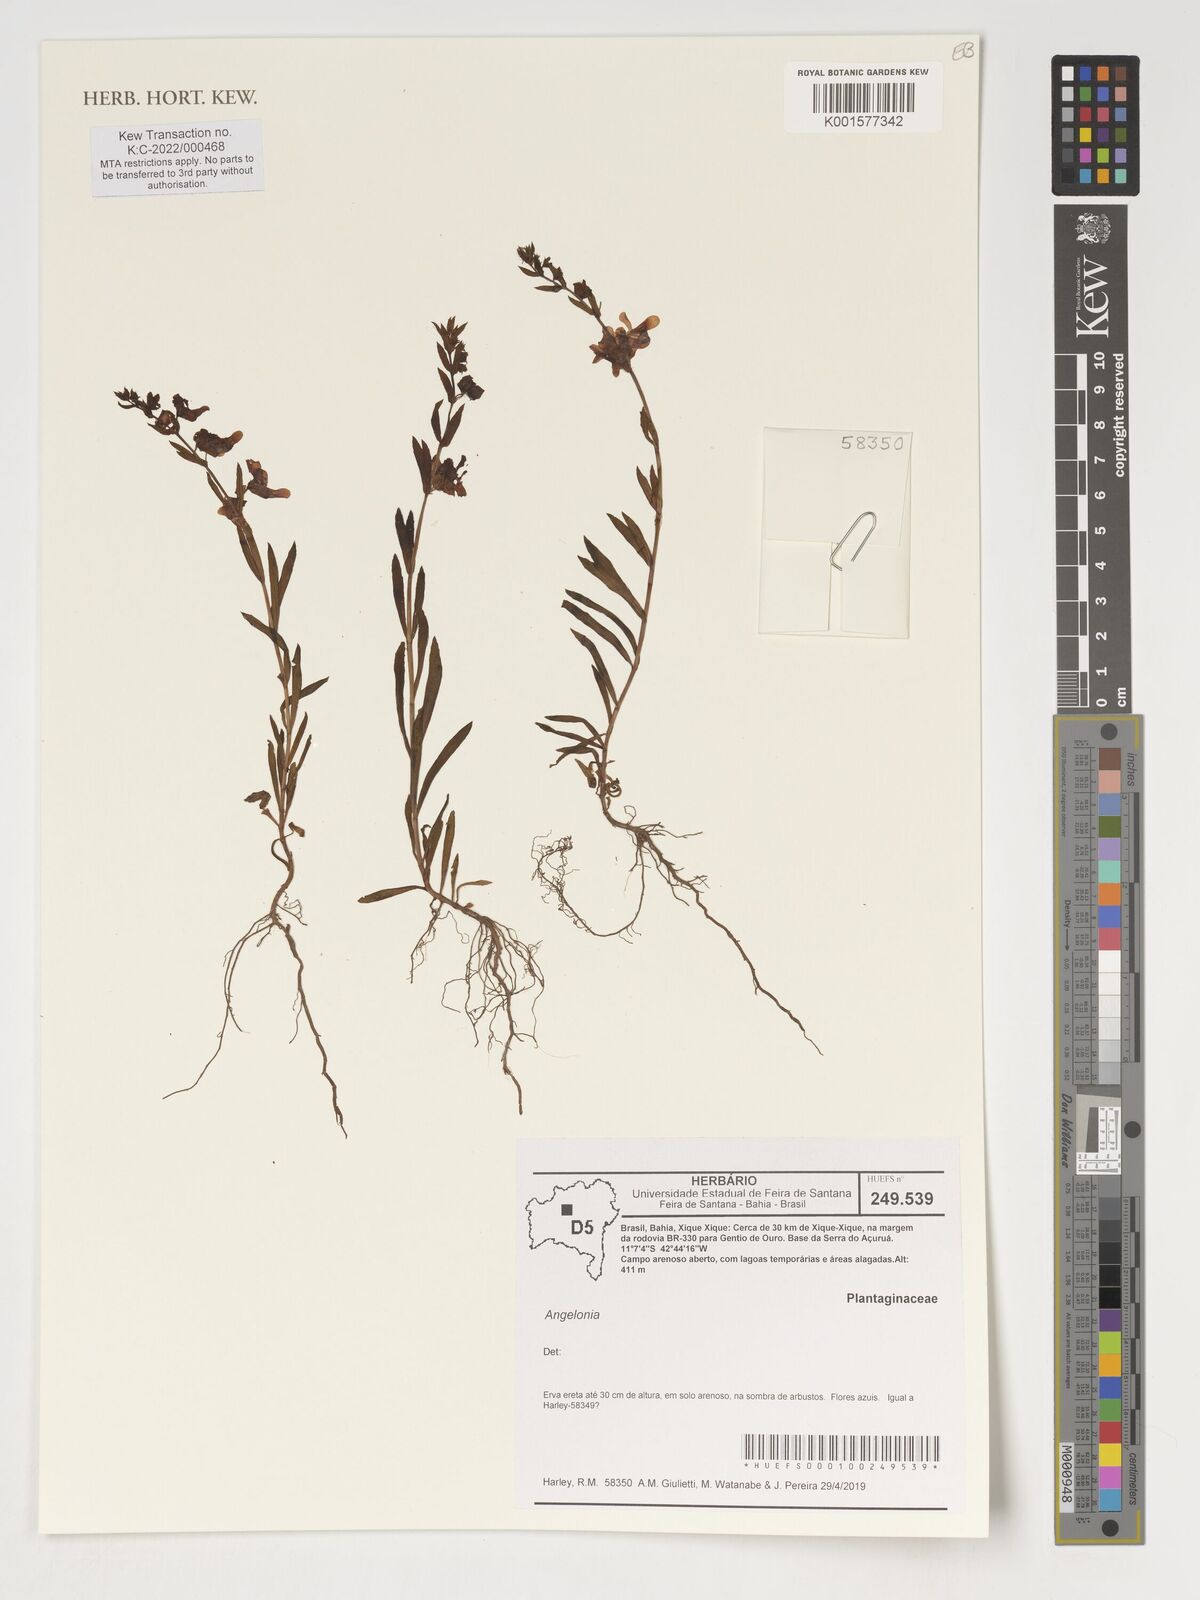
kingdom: Plantae
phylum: Tracheophyta
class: Magnoliopsida
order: Lamiales
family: Plantaginaceae
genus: Angelonia
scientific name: Angelonia
